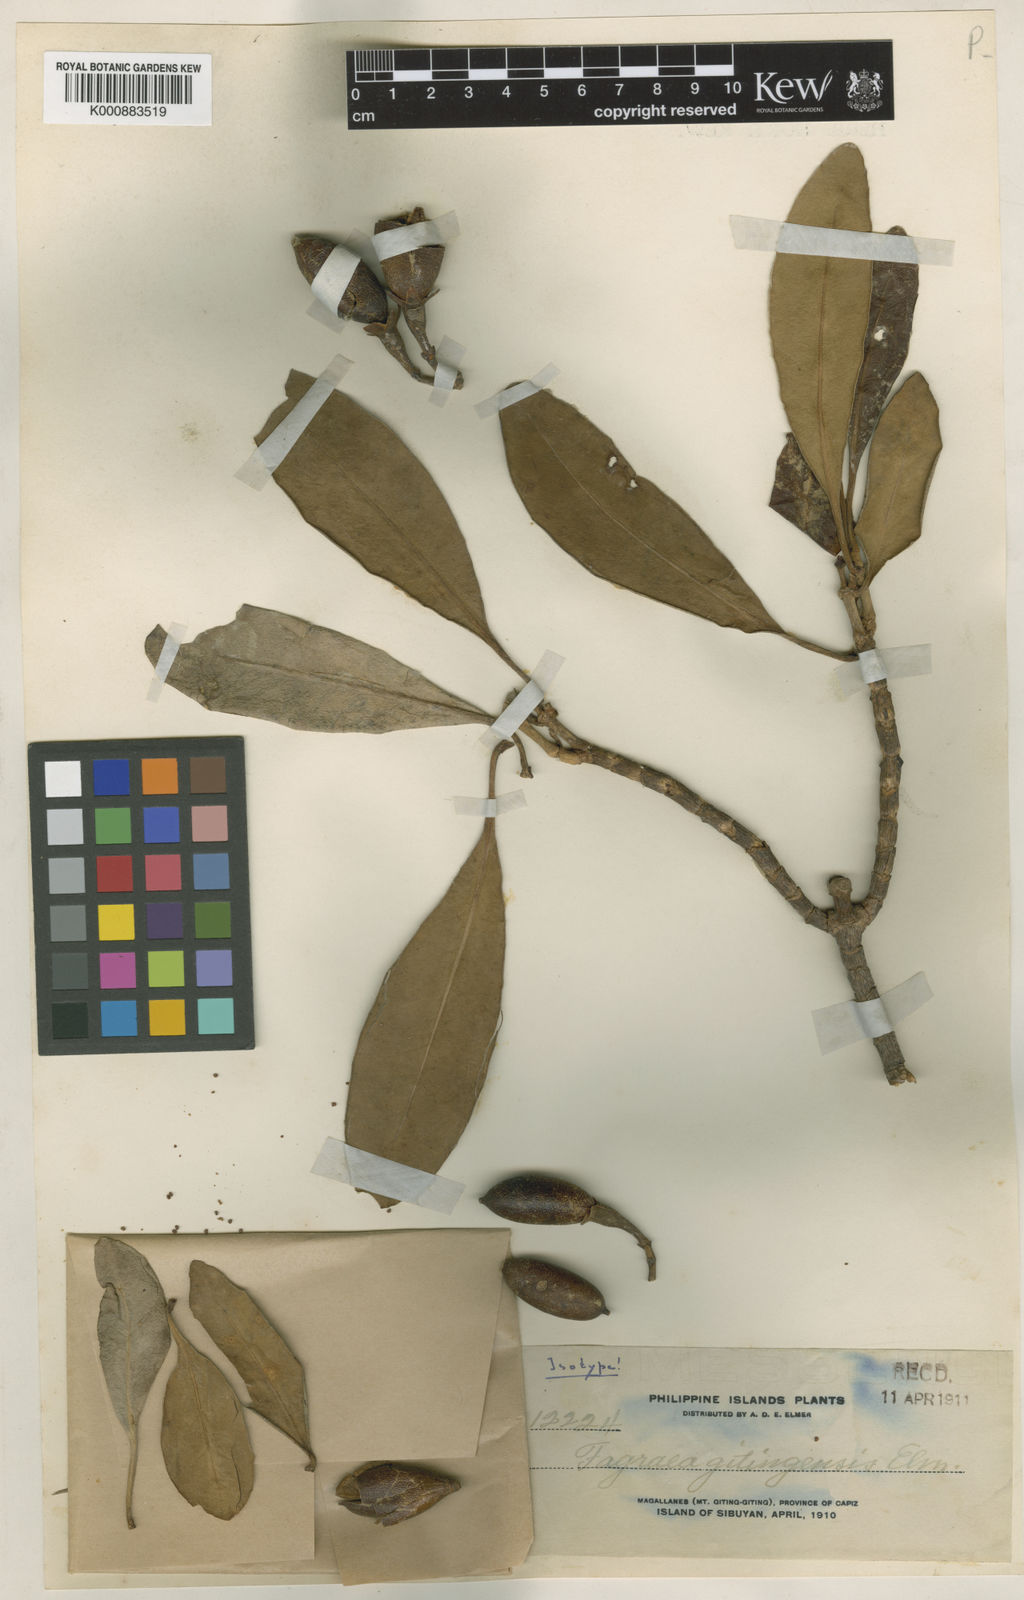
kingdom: Plantae
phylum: Tracheophyta
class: Magnoliopsida
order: Gentianales
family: Gentianaceae
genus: Fagraea
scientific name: Fagraea gitingensis
